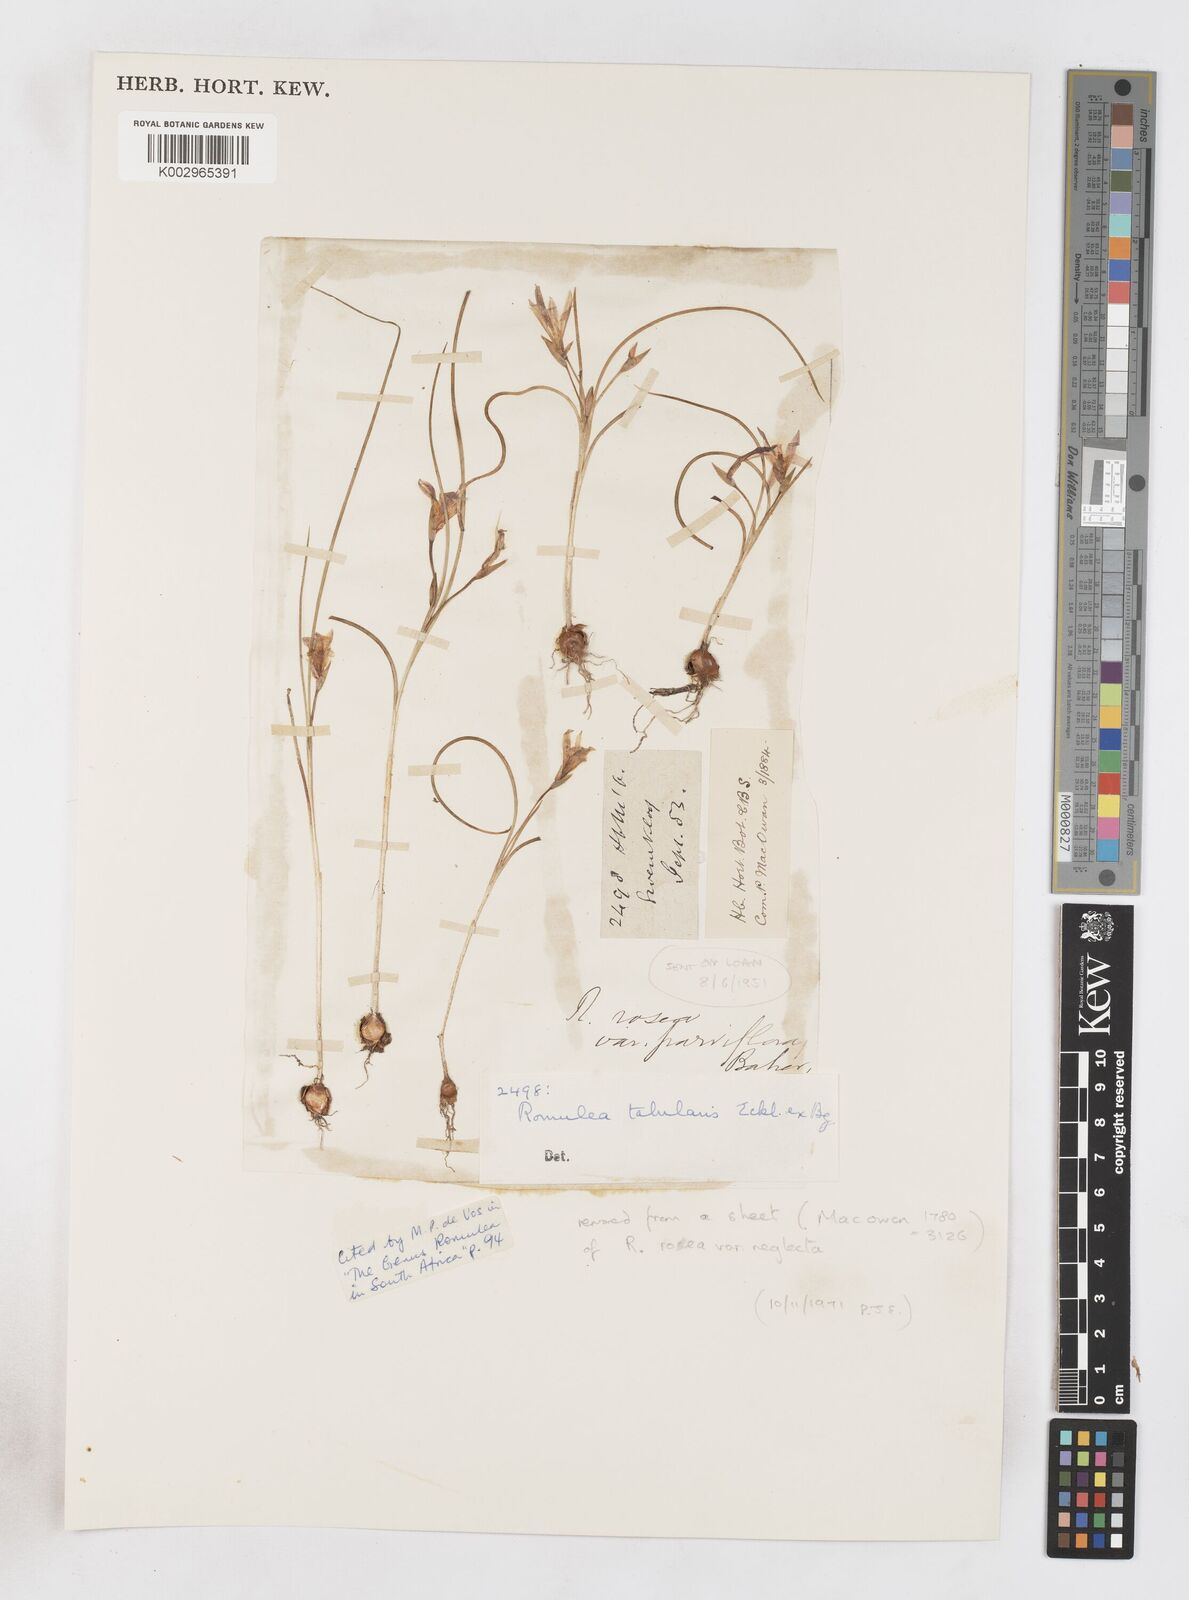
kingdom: Plantae
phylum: Tracheophyta
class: Liliopsida
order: Asparagales
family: Iridaceae
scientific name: Iridaceae
